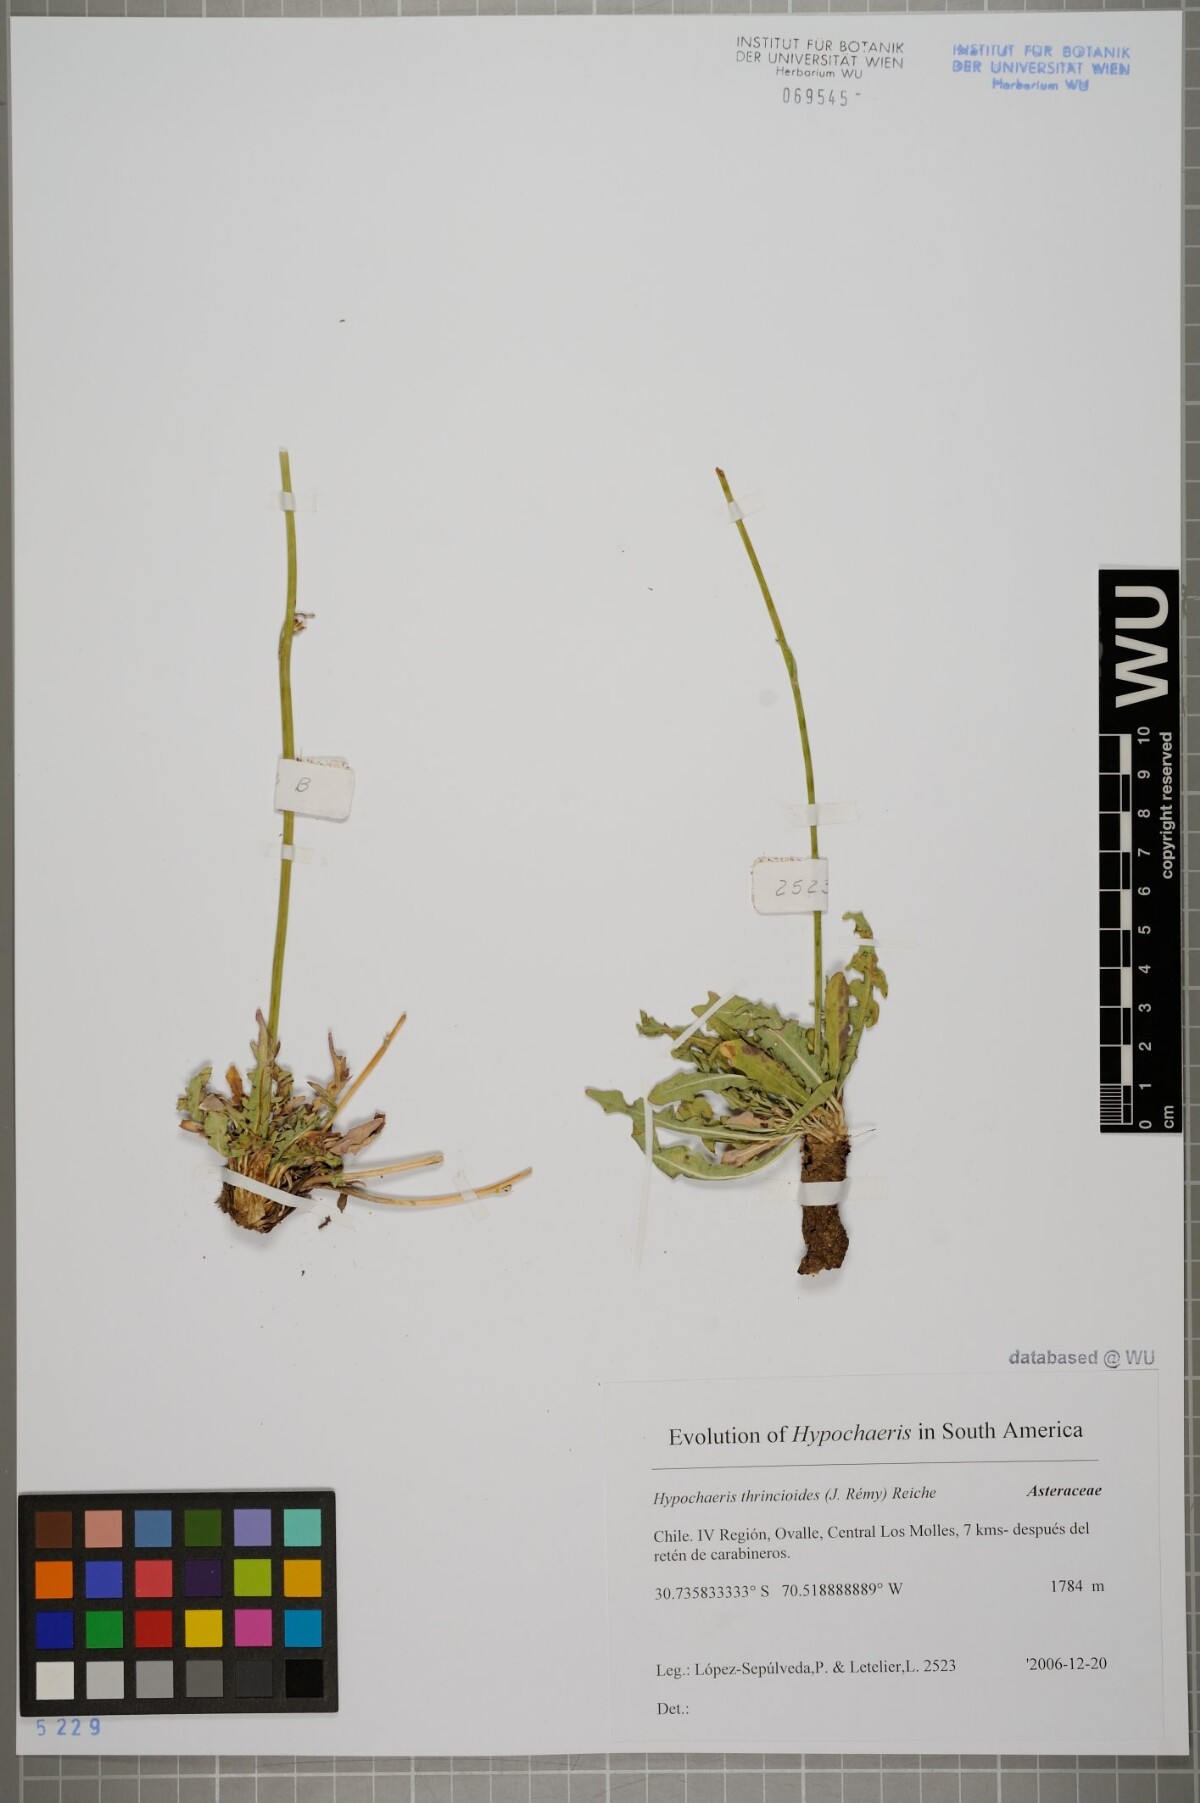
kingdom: Plantae
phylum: Tracheophyta
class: Magnoliopsida
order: Asterales
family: Asteraceae
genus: Hypochaeris
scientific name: Hypochaeris apargioides
